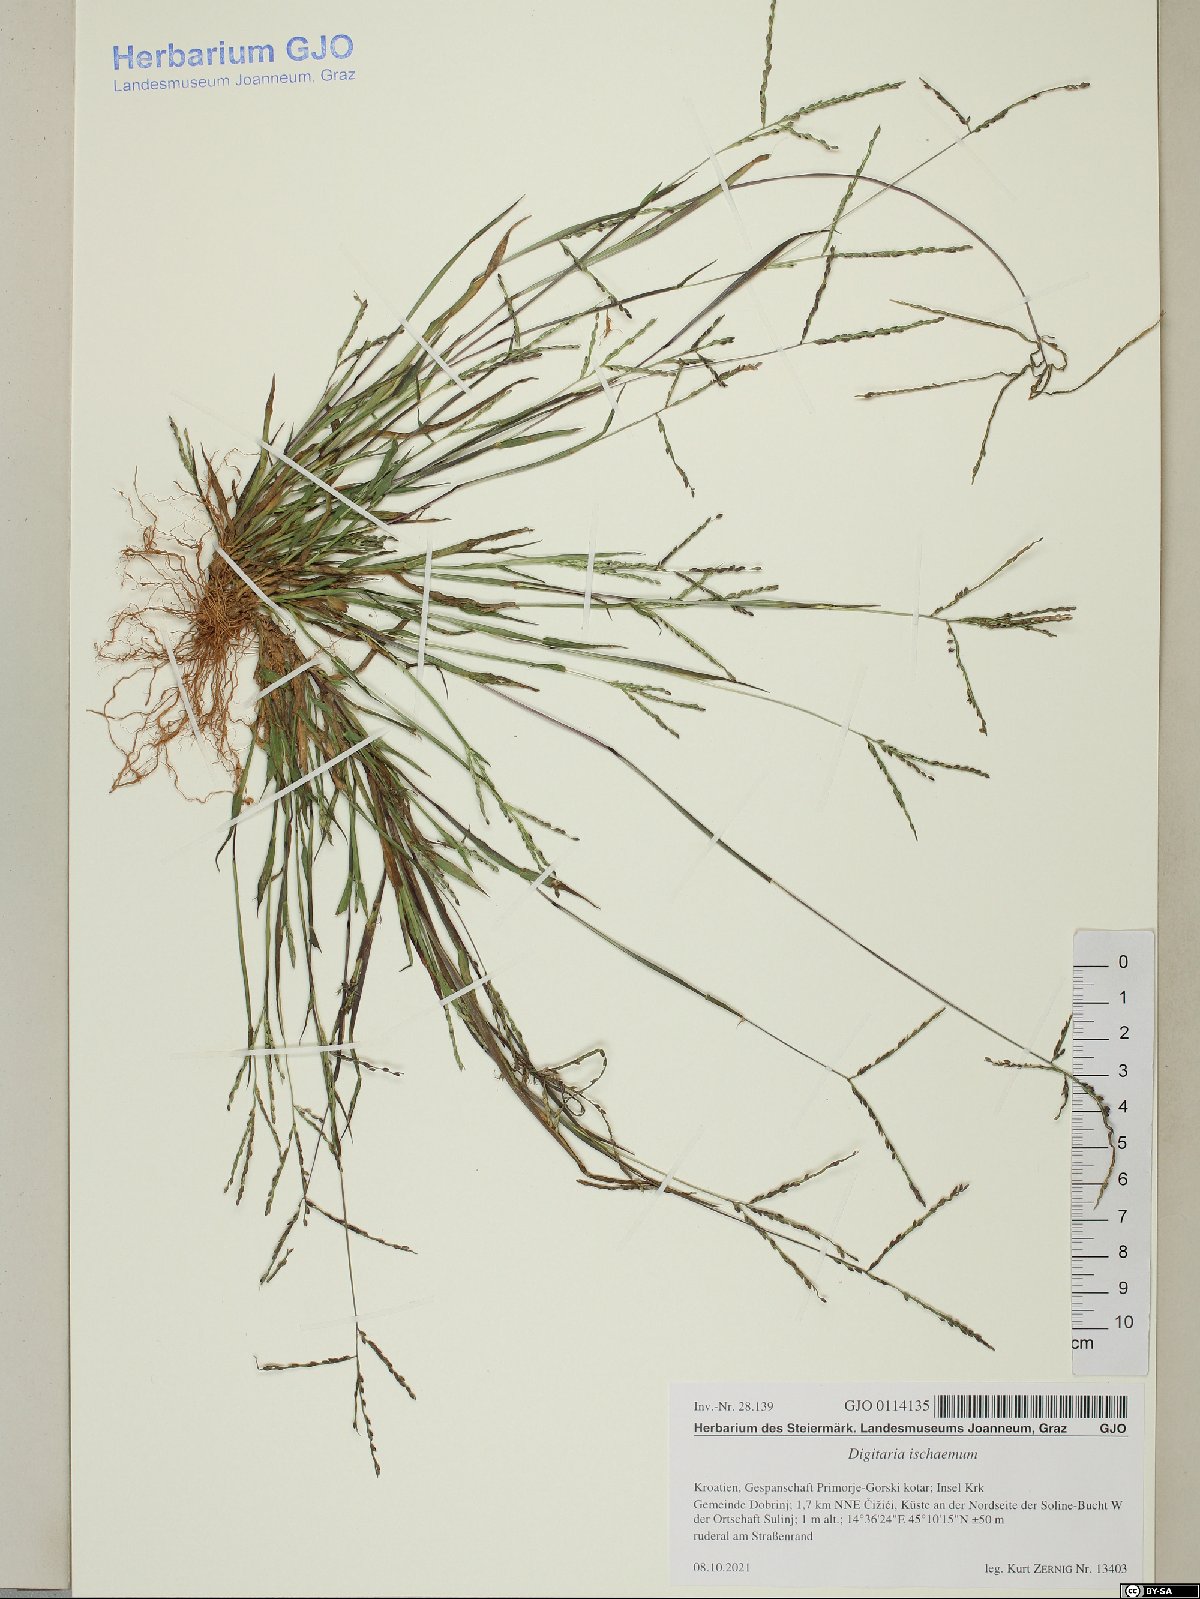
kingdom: Plantae
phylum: Tracheophyta
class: Liliopsida
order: Poales
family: Poaceae
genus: Digitaria
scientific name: Digitaria ischaemum
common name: Smooth crabgrass
